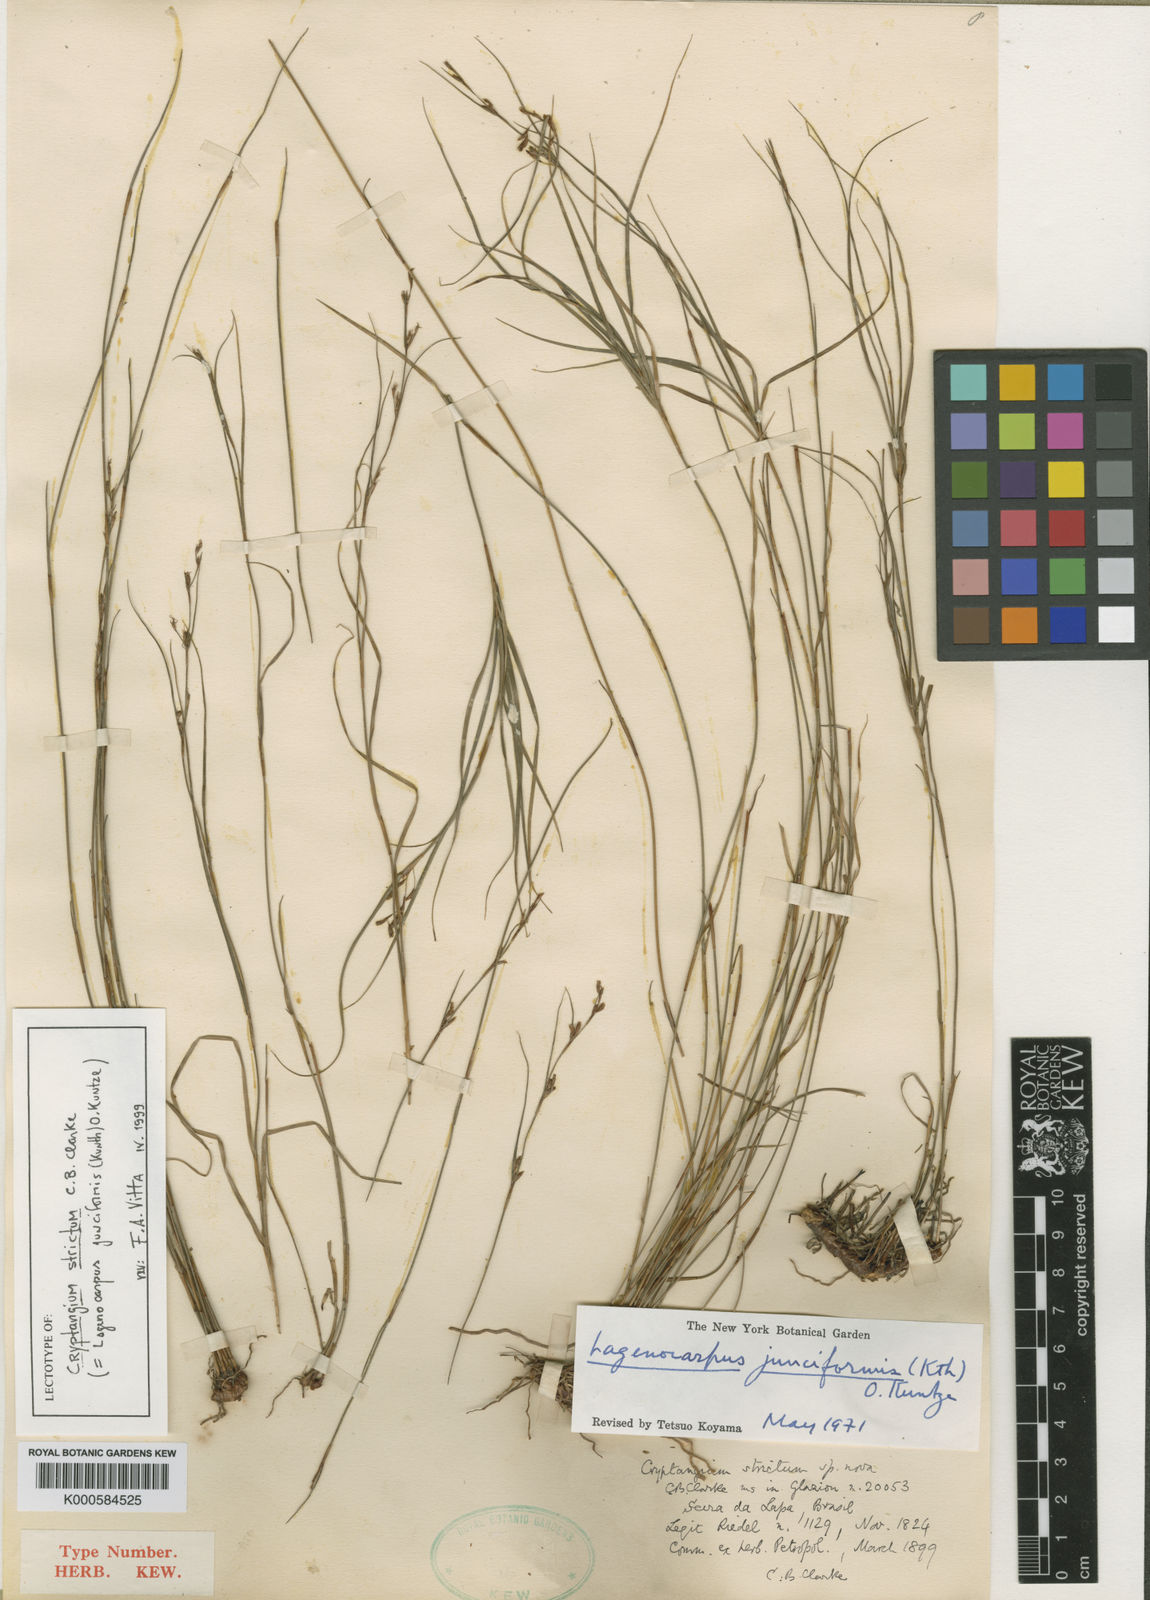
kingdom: Plantae
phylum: Tracheophyta
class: Liliopsida
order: Poales
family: Cyperaceae
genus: Krenakia
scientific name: Krenakia junciformis
